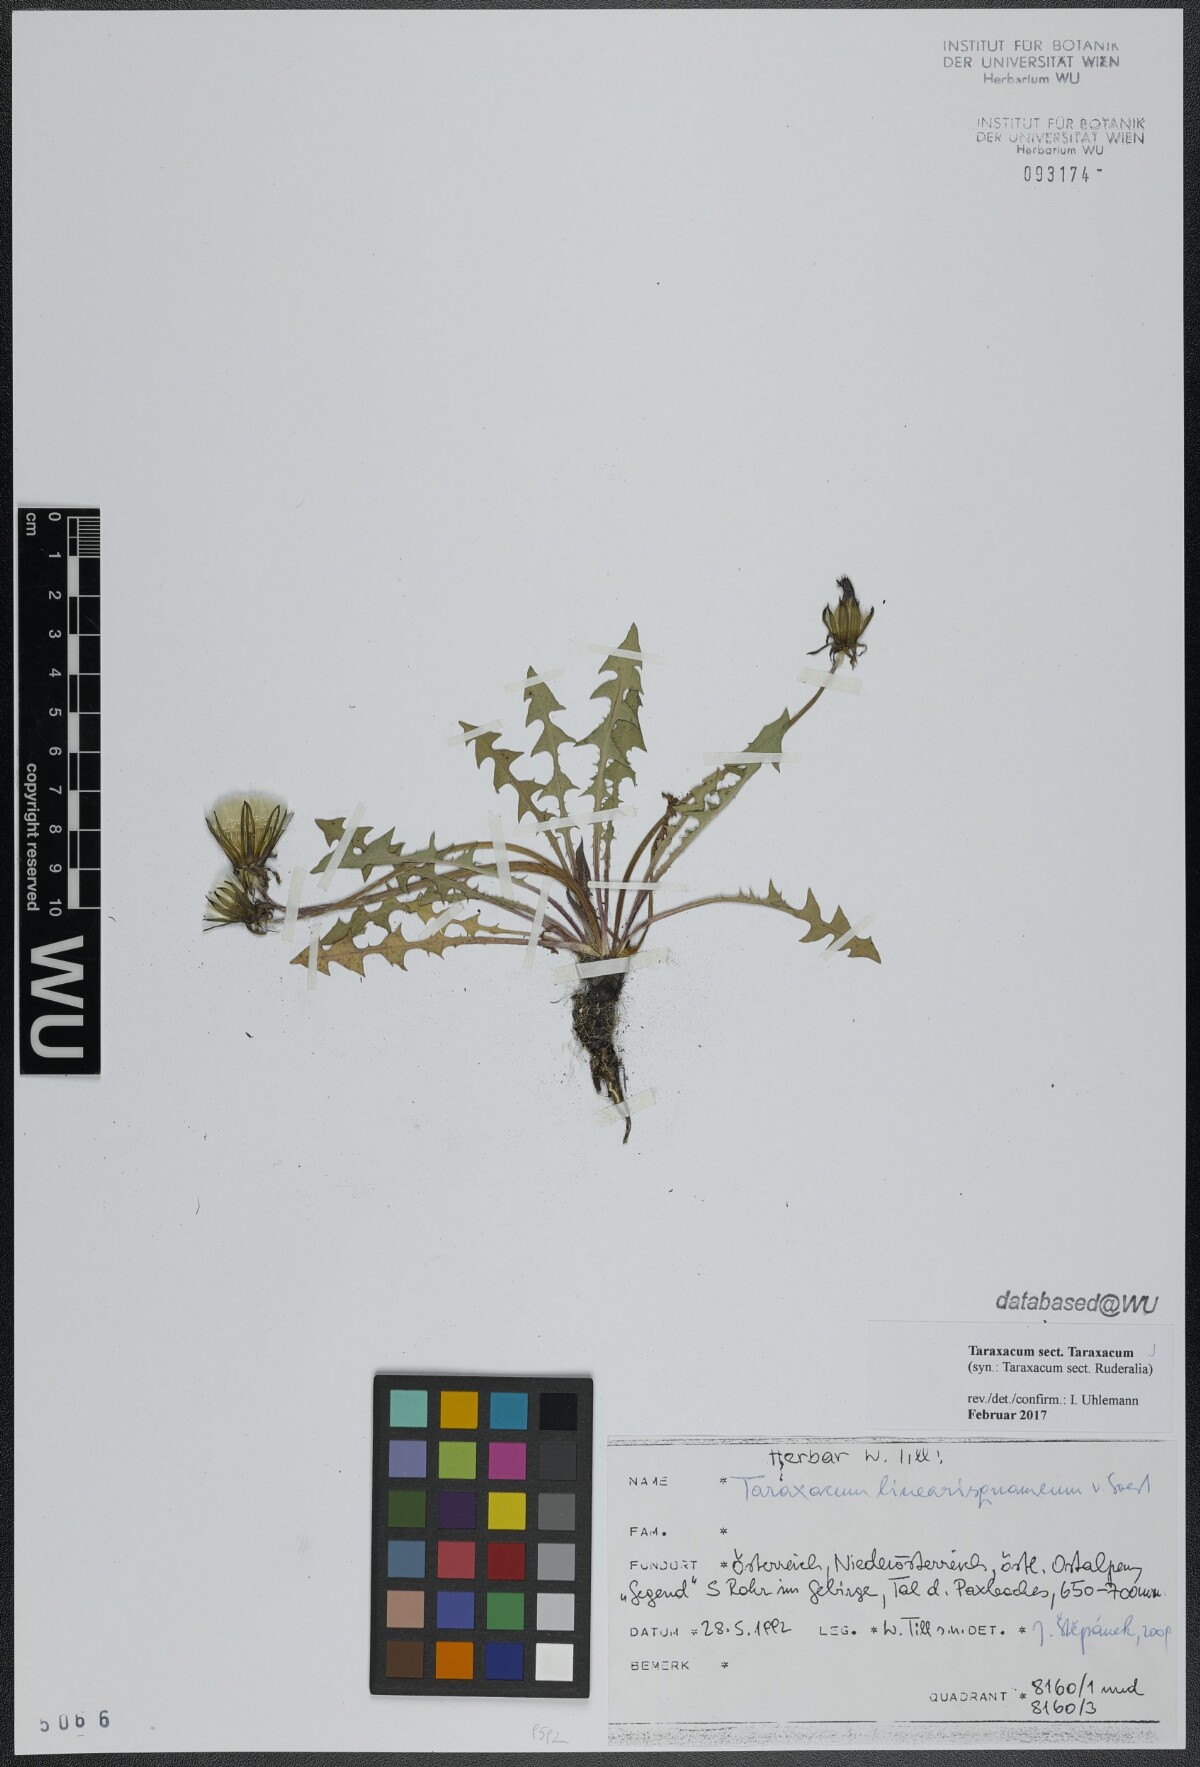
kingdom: Plantae
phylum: Tracheophyta
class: Magnoliopsida
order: Asterales
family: Asteraceae
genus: Taraxacum
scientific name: Taraxacum
